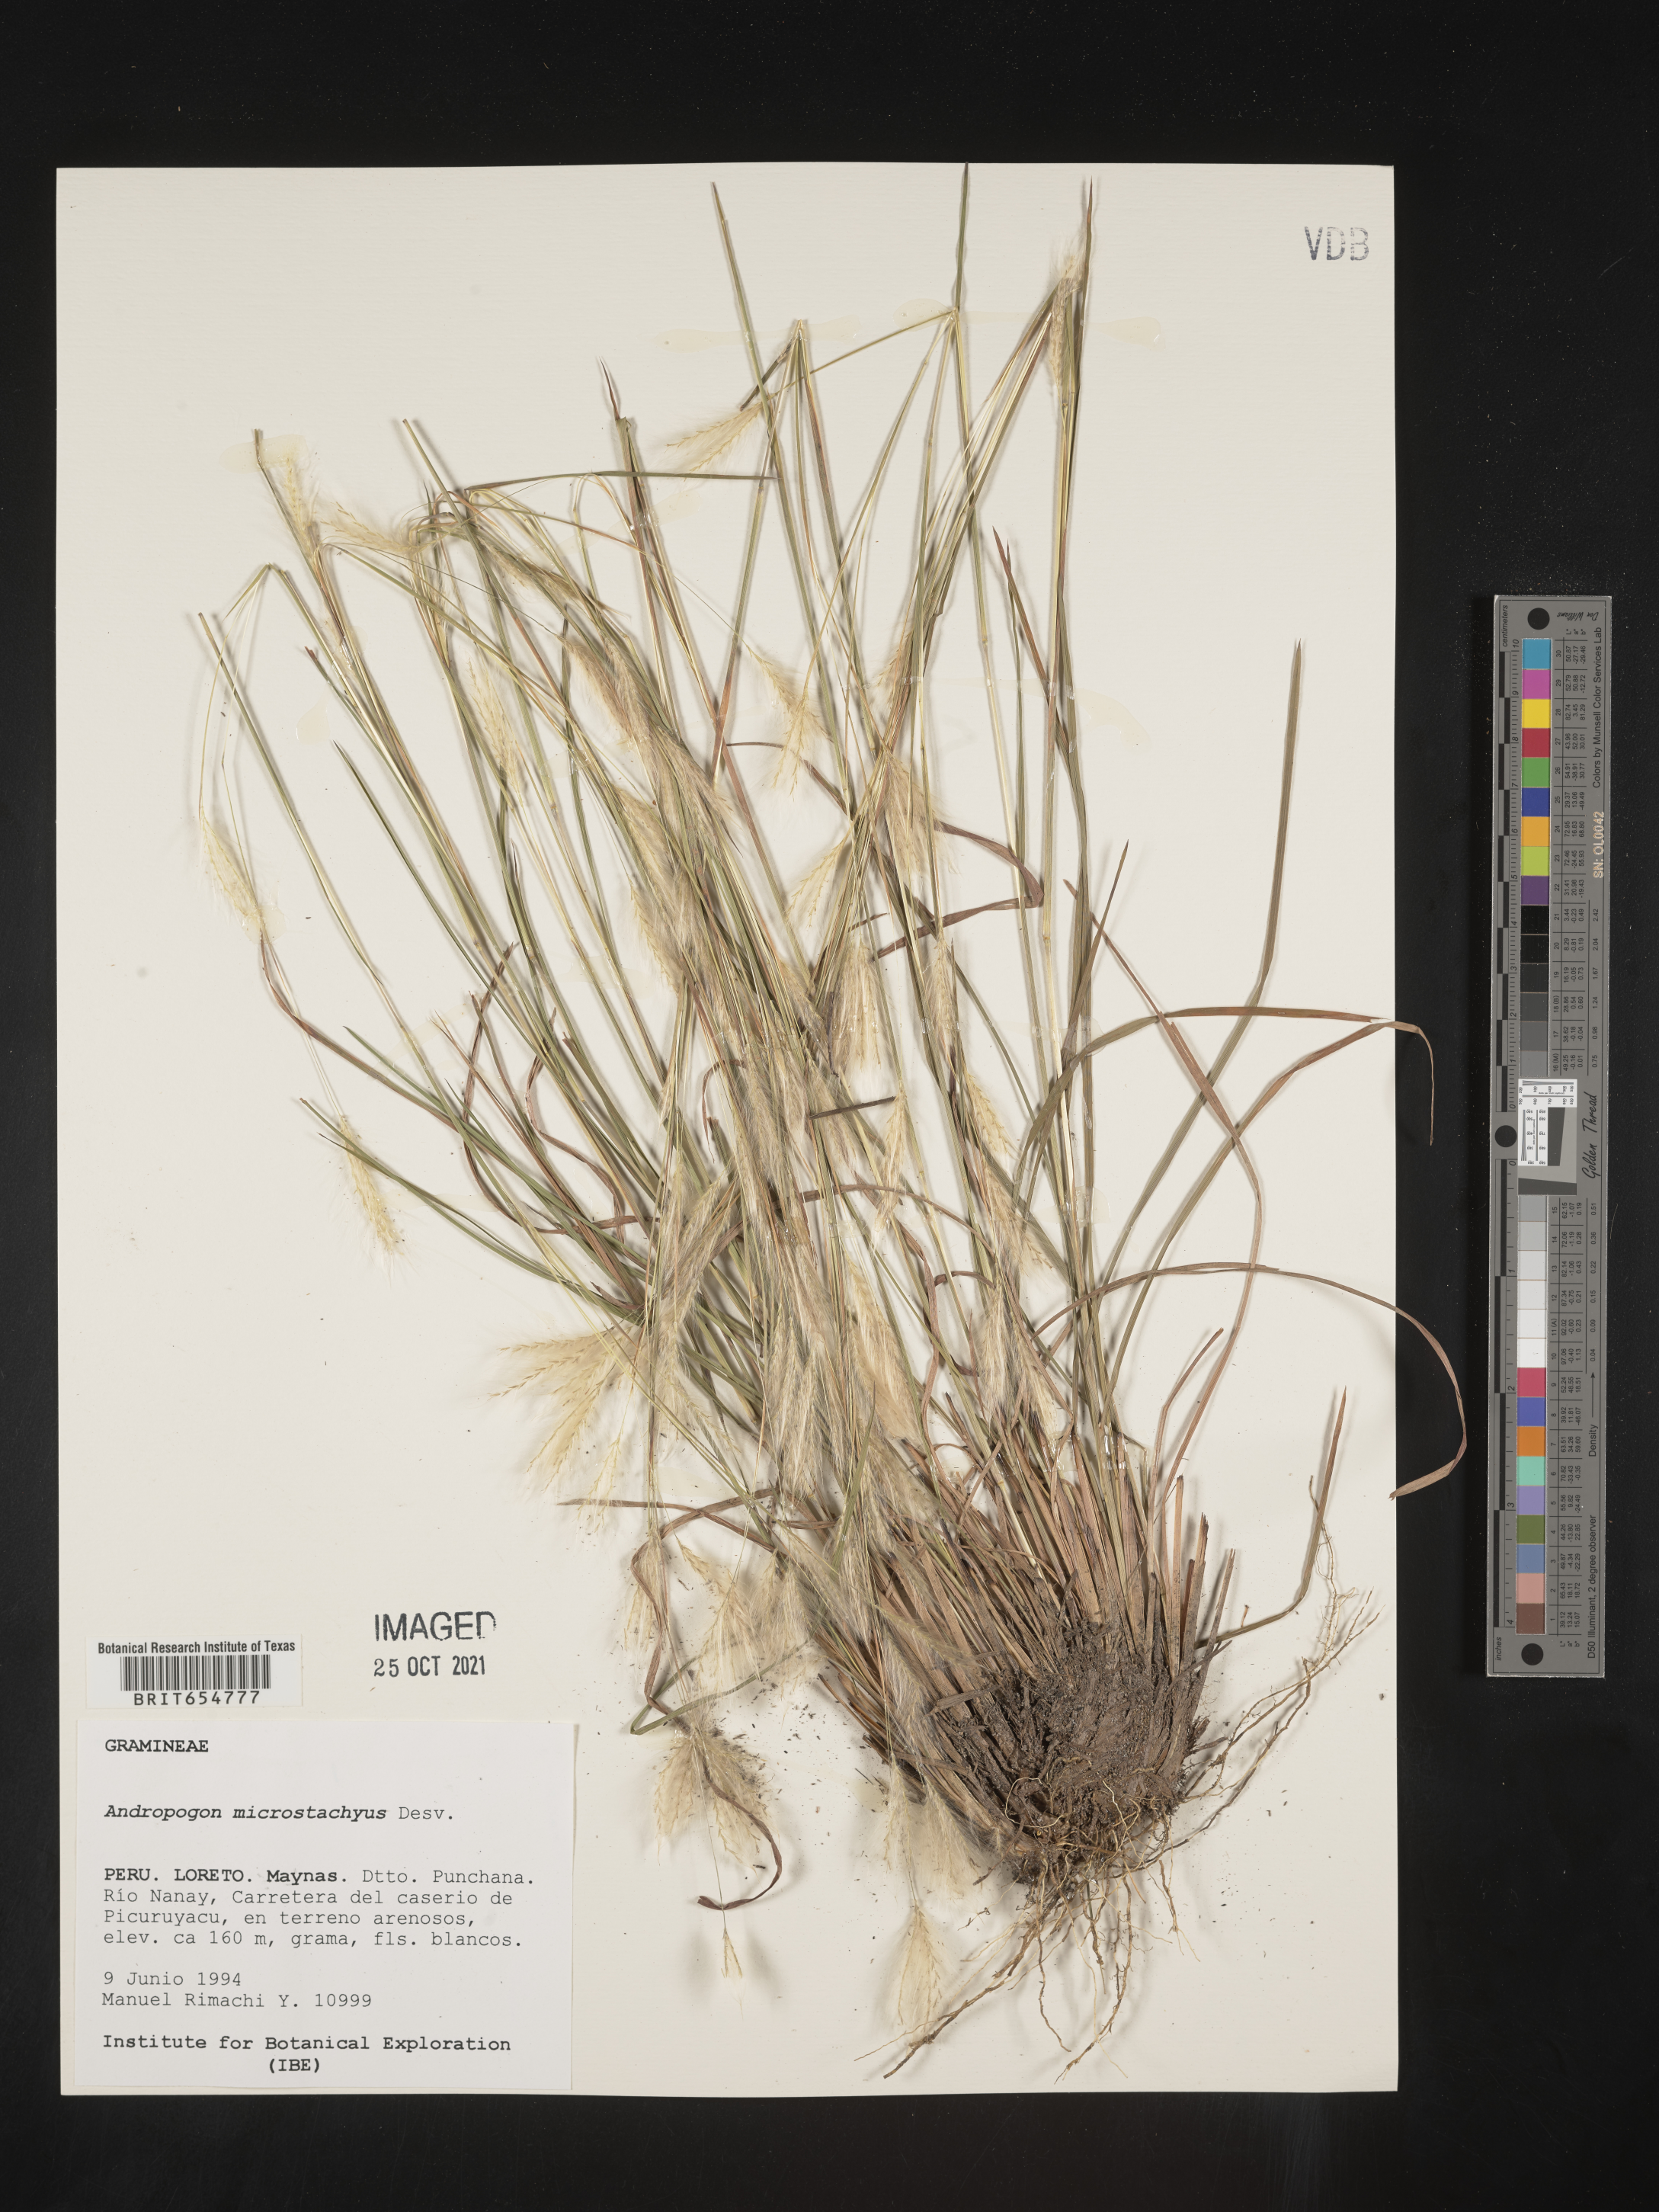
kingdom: Plantae
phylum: Tracheophyta
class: Liliopsida
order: Poales
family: Poaceae
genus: Andropogon
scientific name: Andropogon
